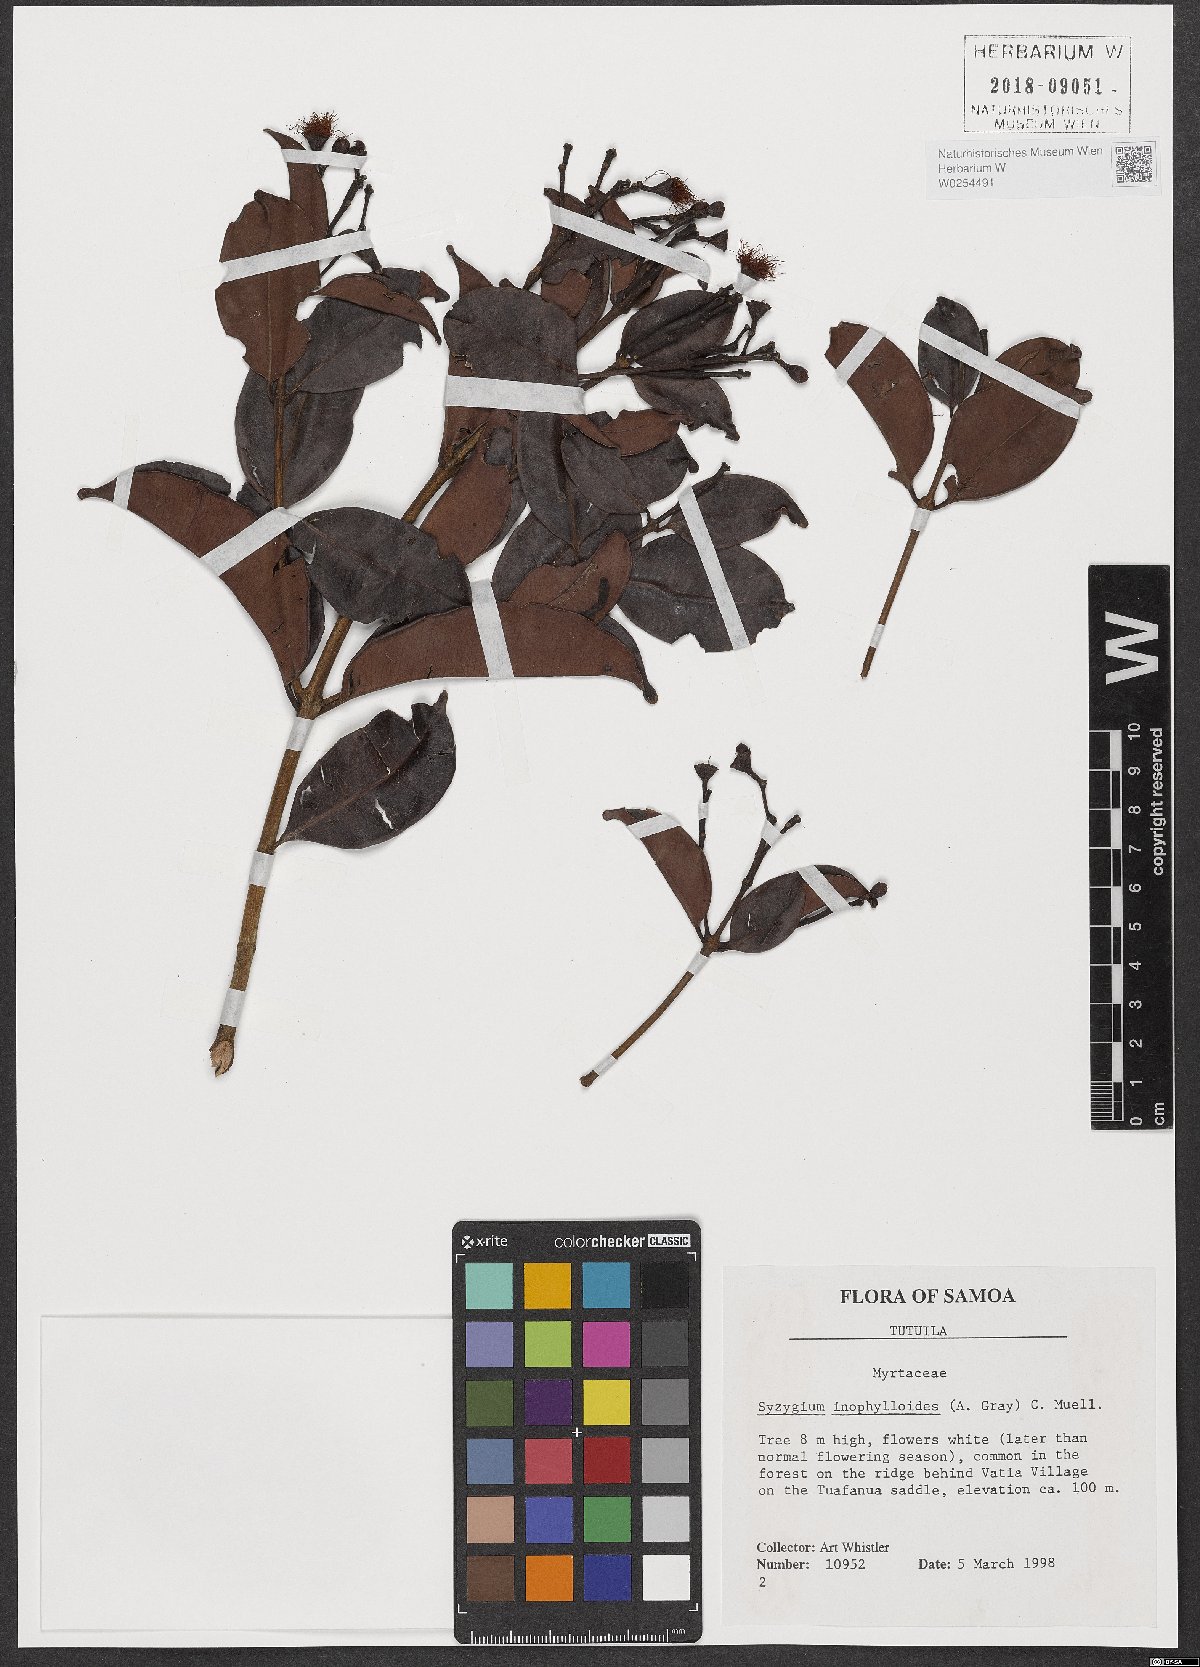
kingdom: Plantae
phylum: Tracheophyta
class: Magnoliopsida
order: Myrtales
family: Myrtaceae
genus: Syzygium
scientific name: Syzygium inophylloides
